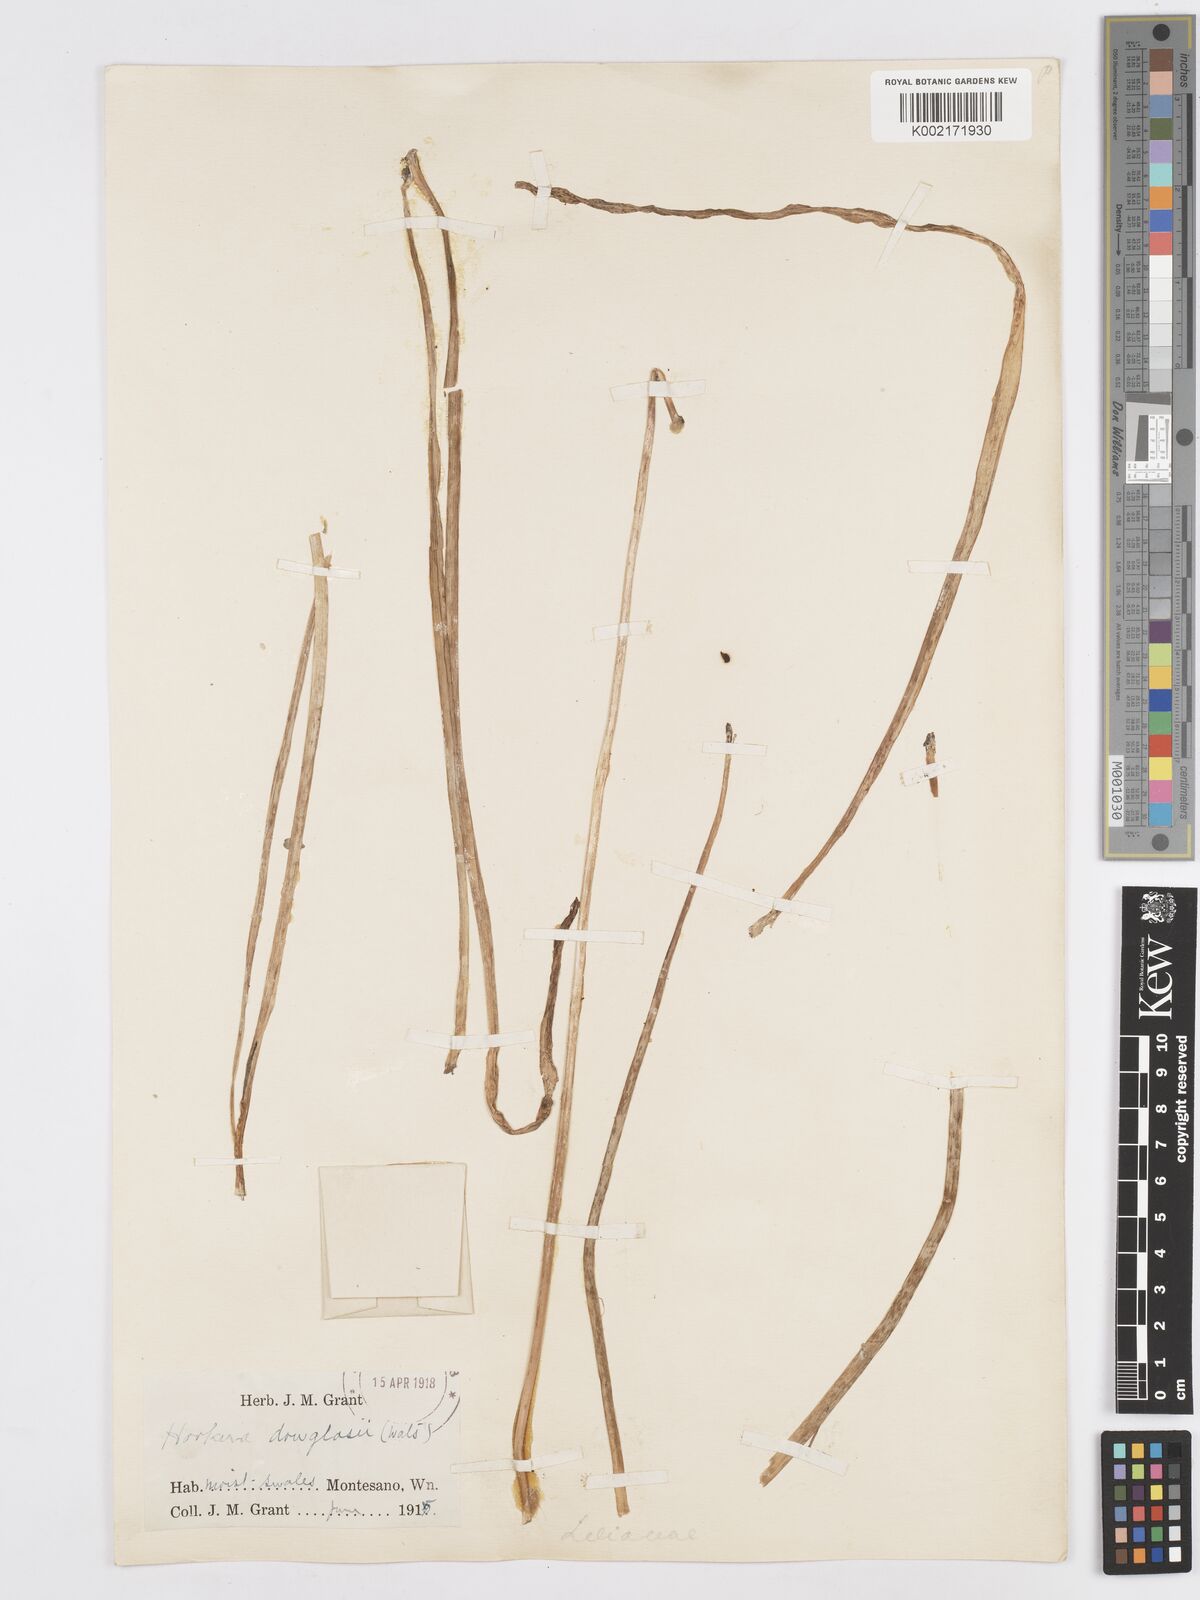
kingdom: Plantae
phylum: Tracheophyta
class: Liliopsida
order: Asparagales
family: Asparagaceae
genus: Dichelostemma
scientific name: Dichelostemma multiflorum
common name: Round-tooth ookow
